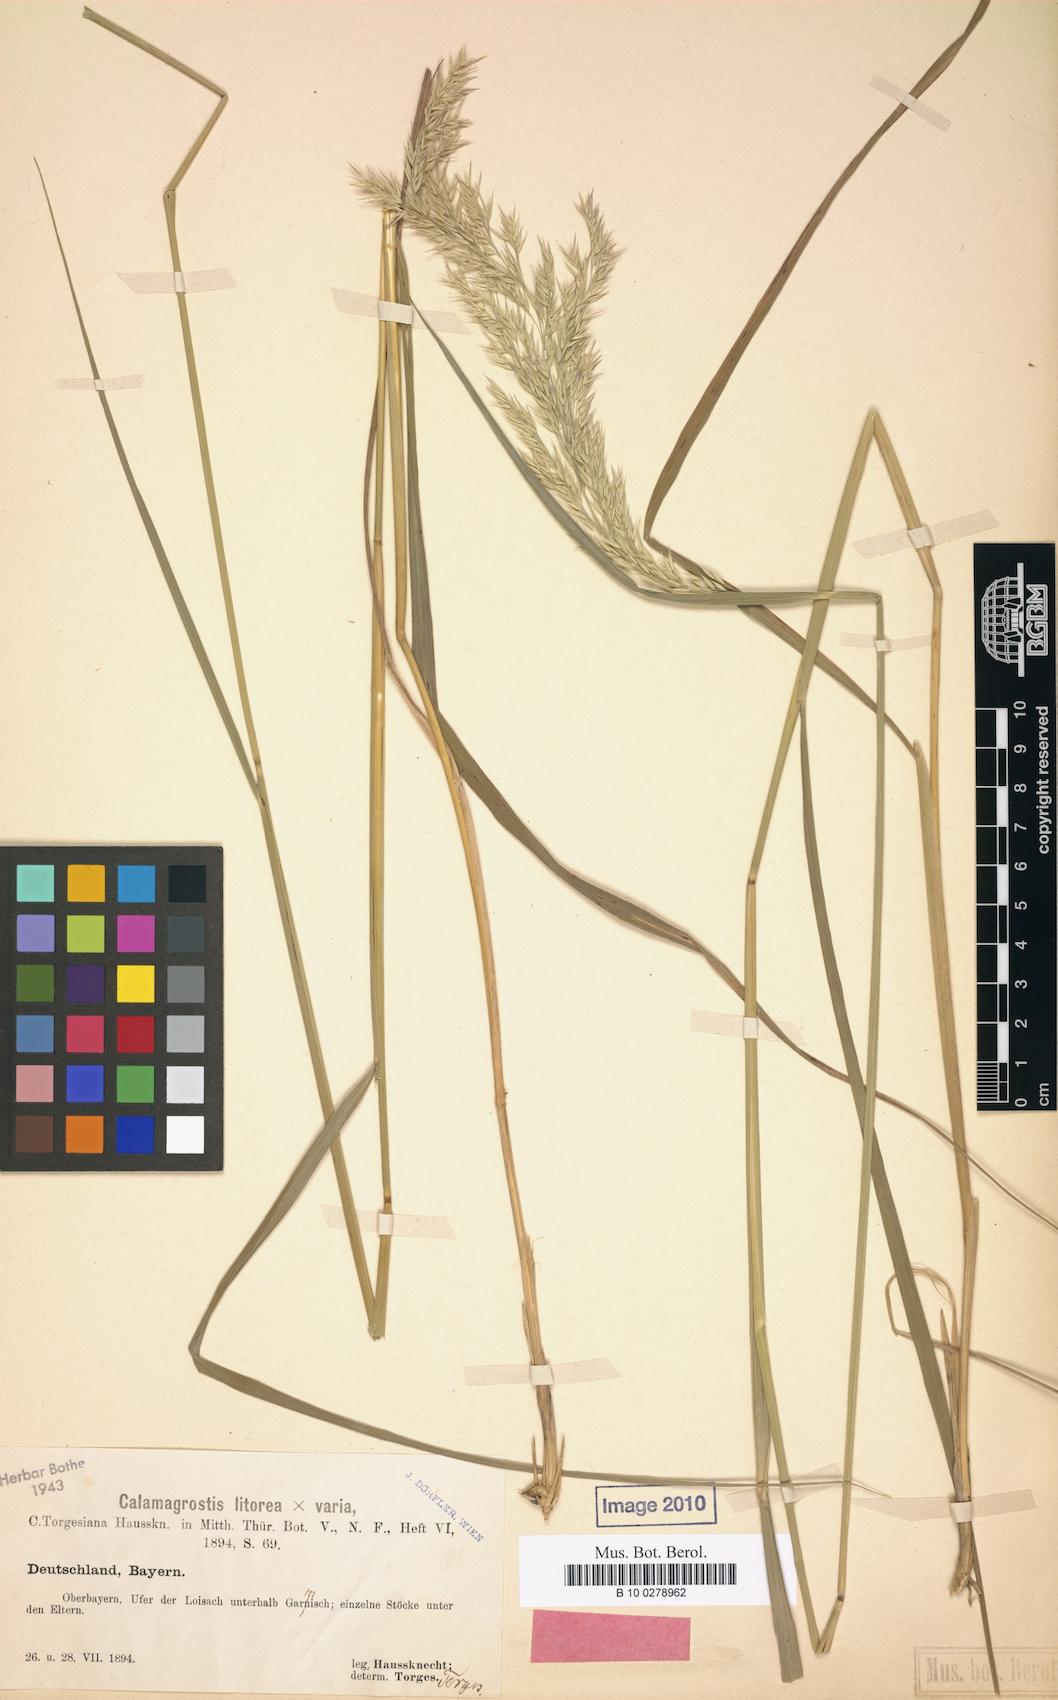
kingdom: Plantae
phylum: Tracheophyta
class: Liliopsida
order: Poales
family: Poaceae
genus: Calamagrostis
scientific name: Calamagrostis torgesiana
